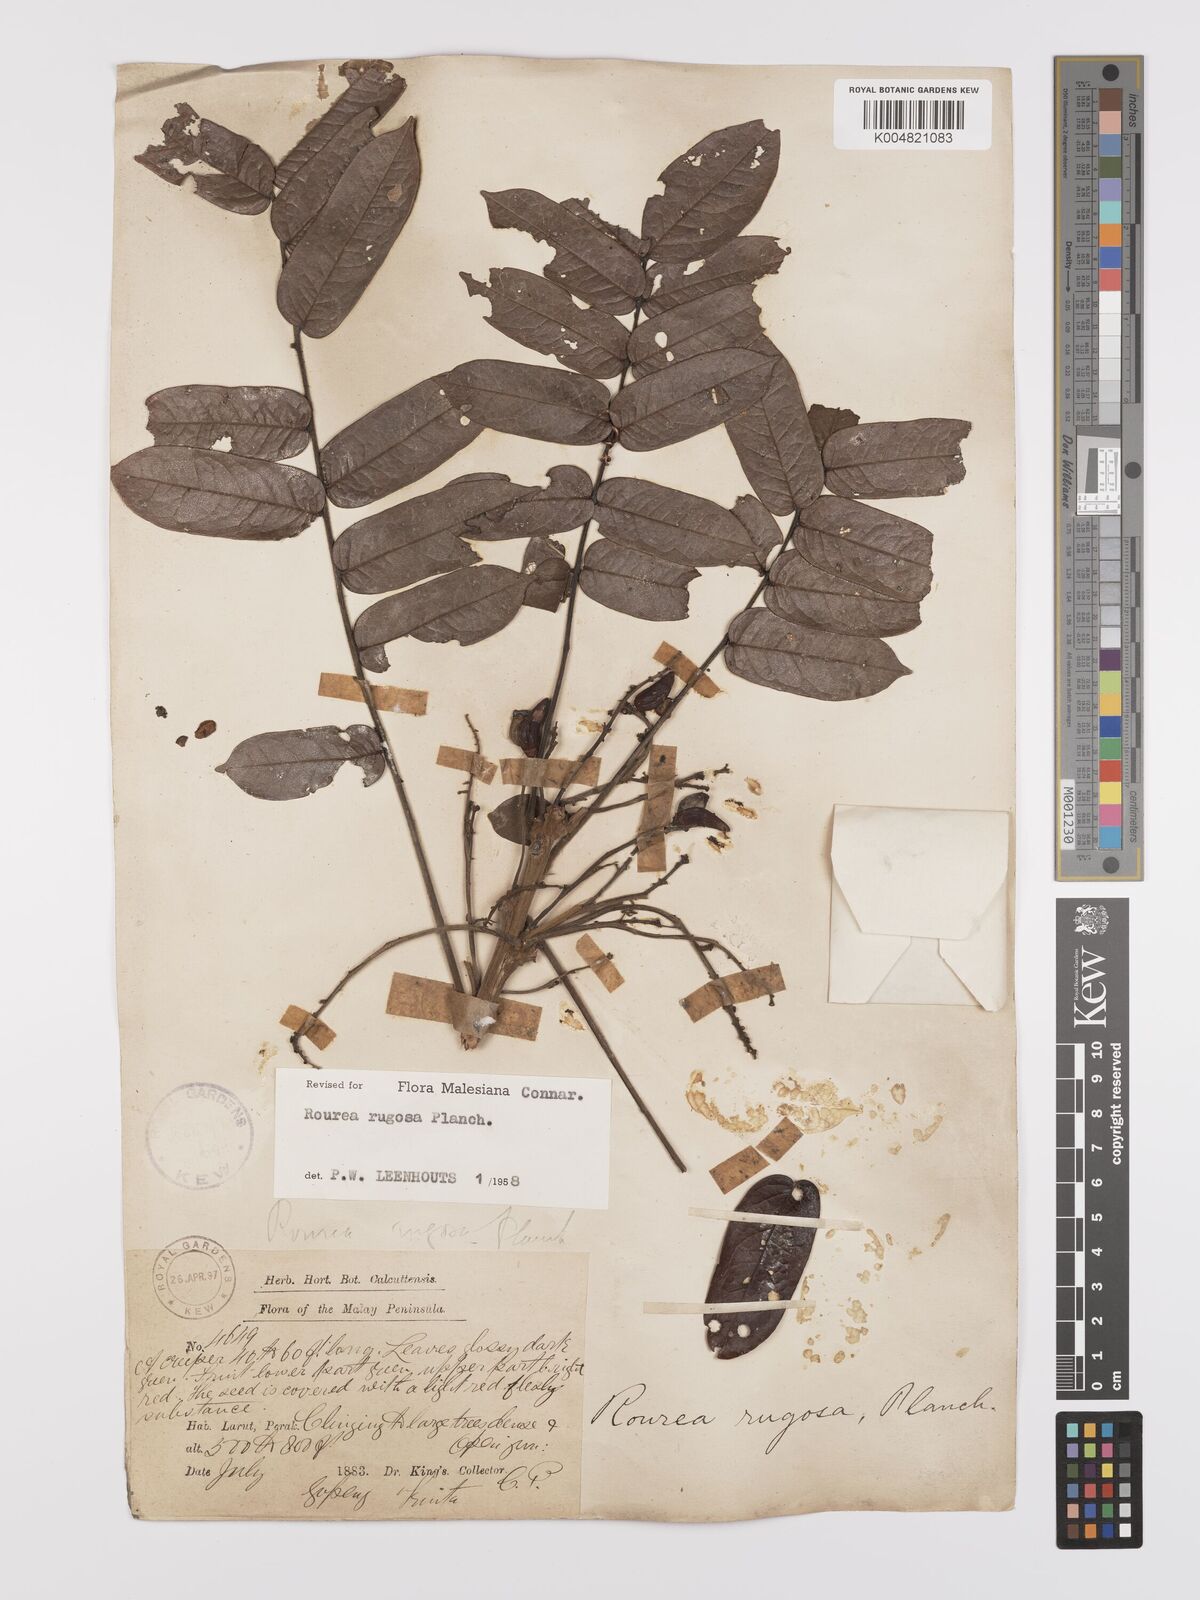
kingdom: Plantae
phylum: Tracheophyta
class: Magnoliopsida
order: Oxalidales
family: Connaraceae
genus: Rourea
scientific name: Rourea rugosa
